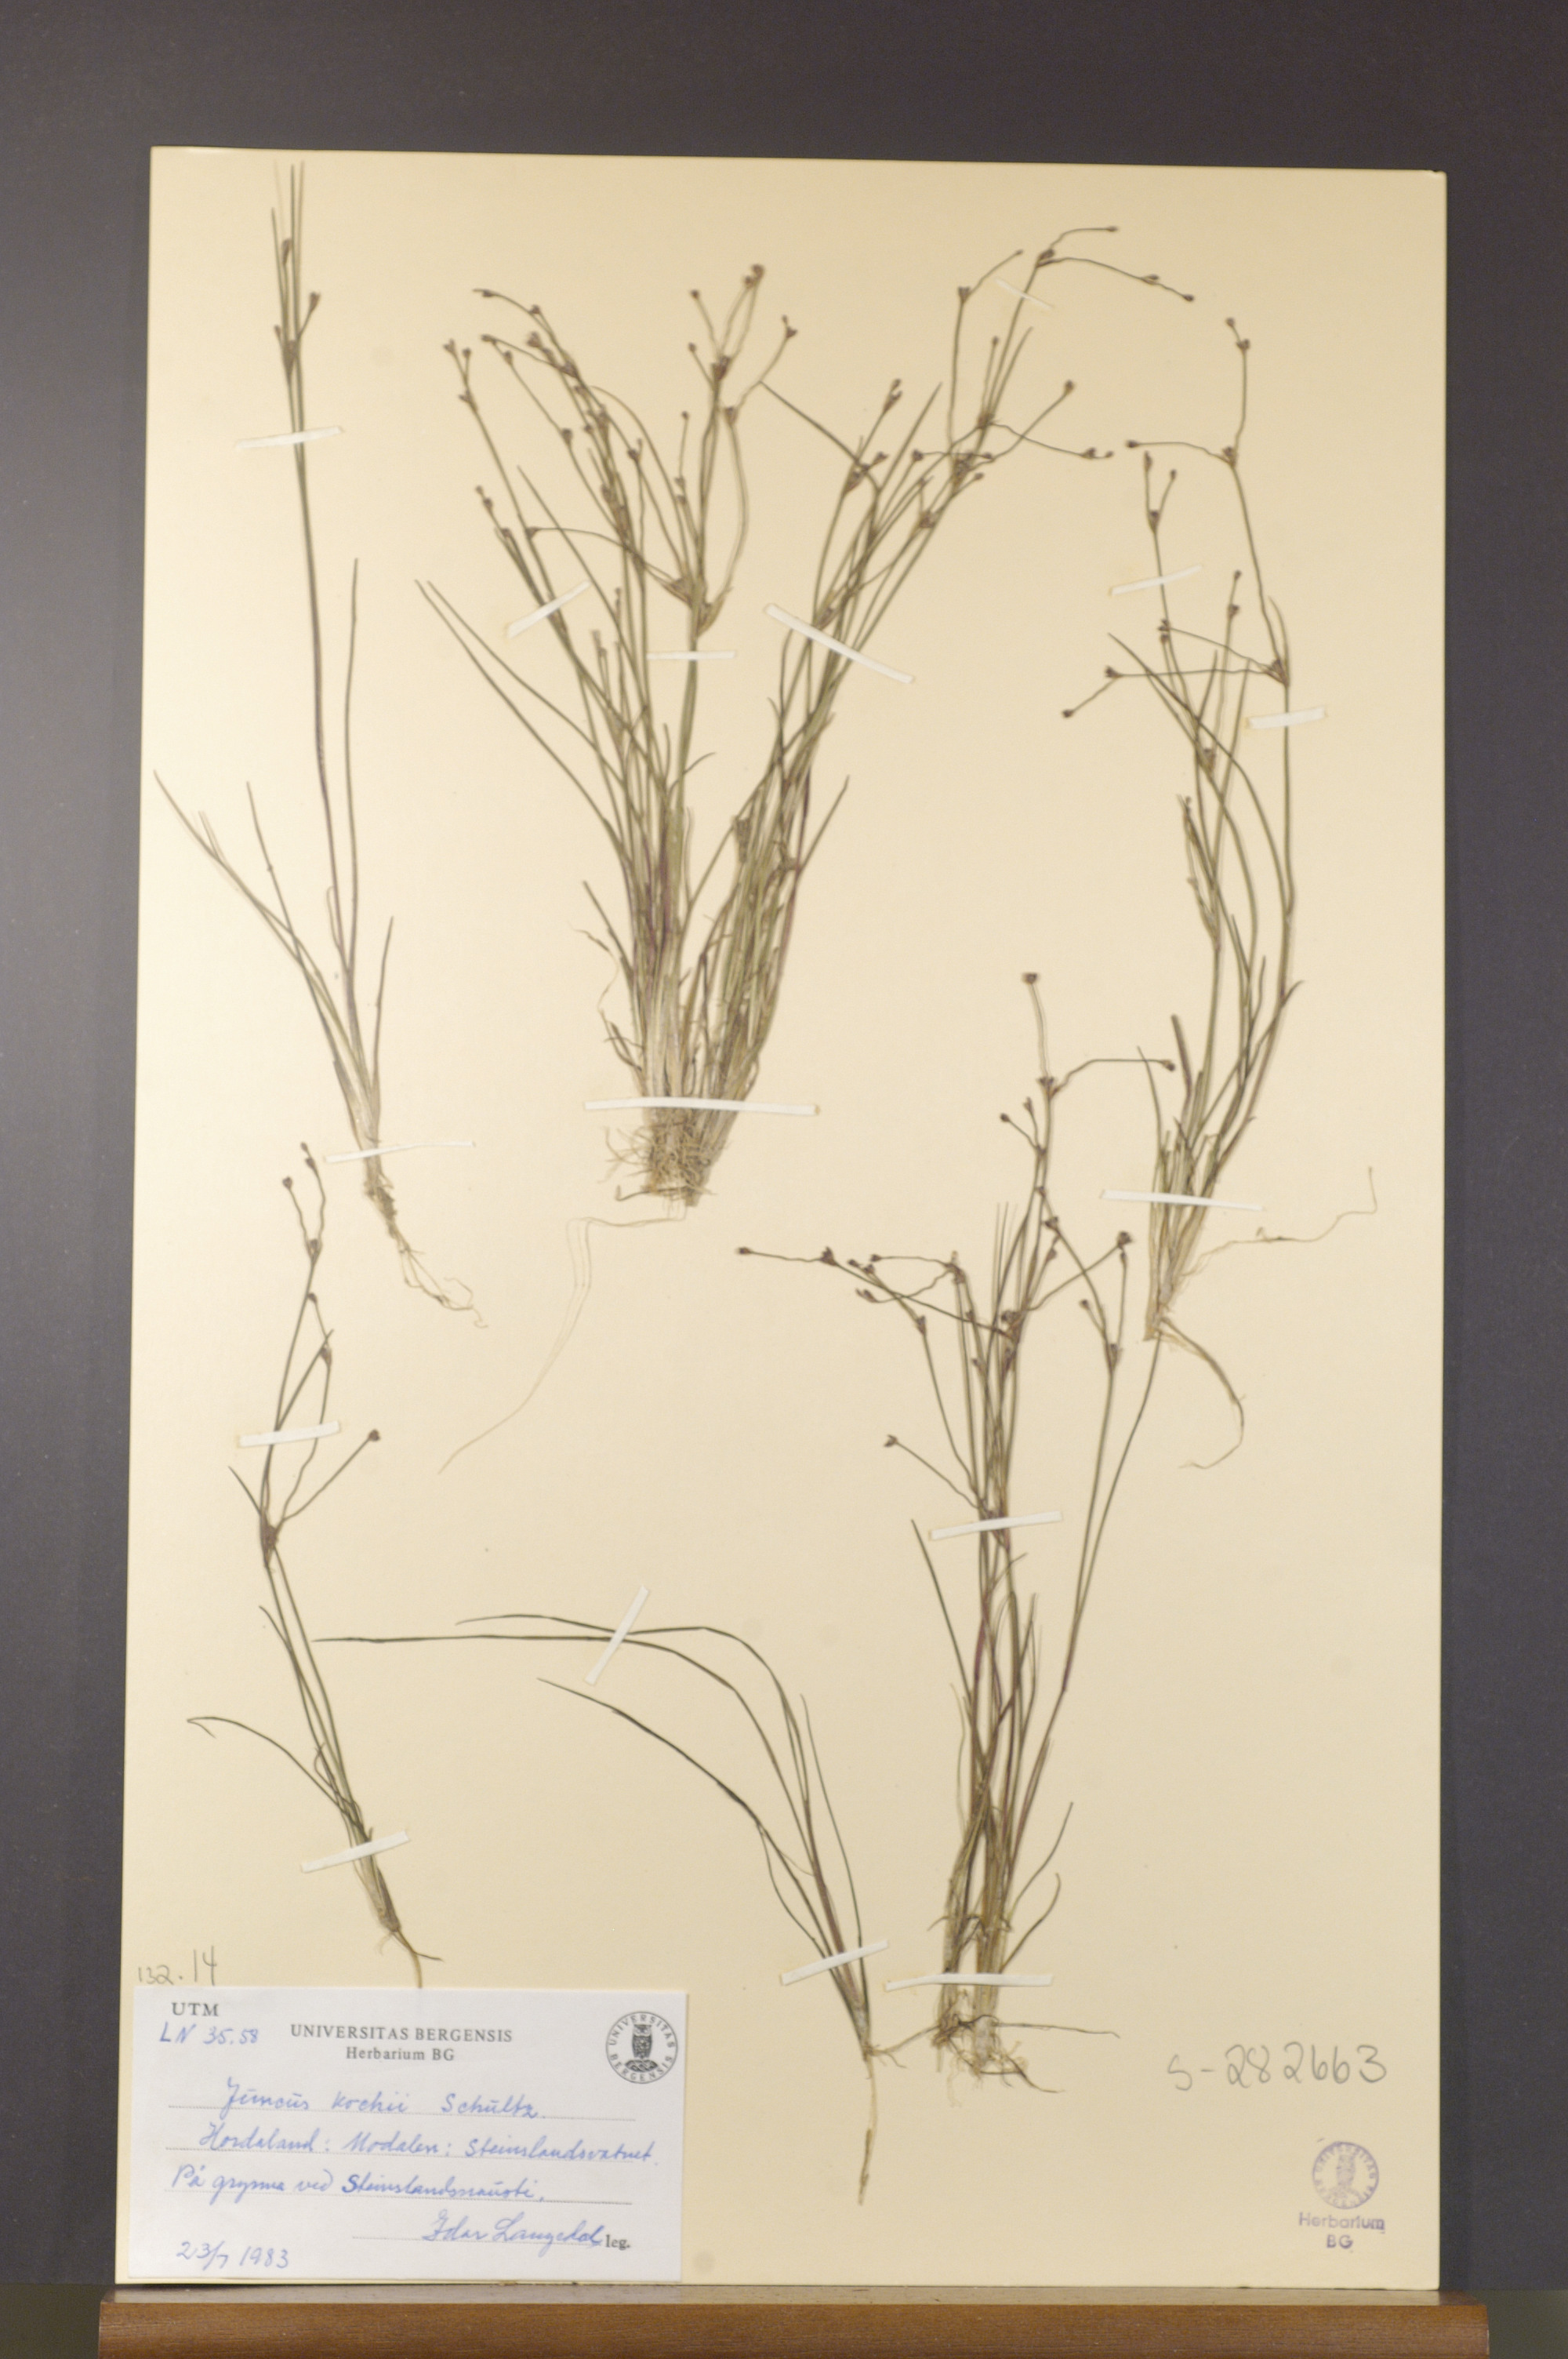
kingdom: Plantae
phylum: Tracheophyta
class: Liliopsida
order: Poales
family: Juncaceae
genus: Juncus
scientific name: Juncus bulbosus
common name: Bulbous rush
